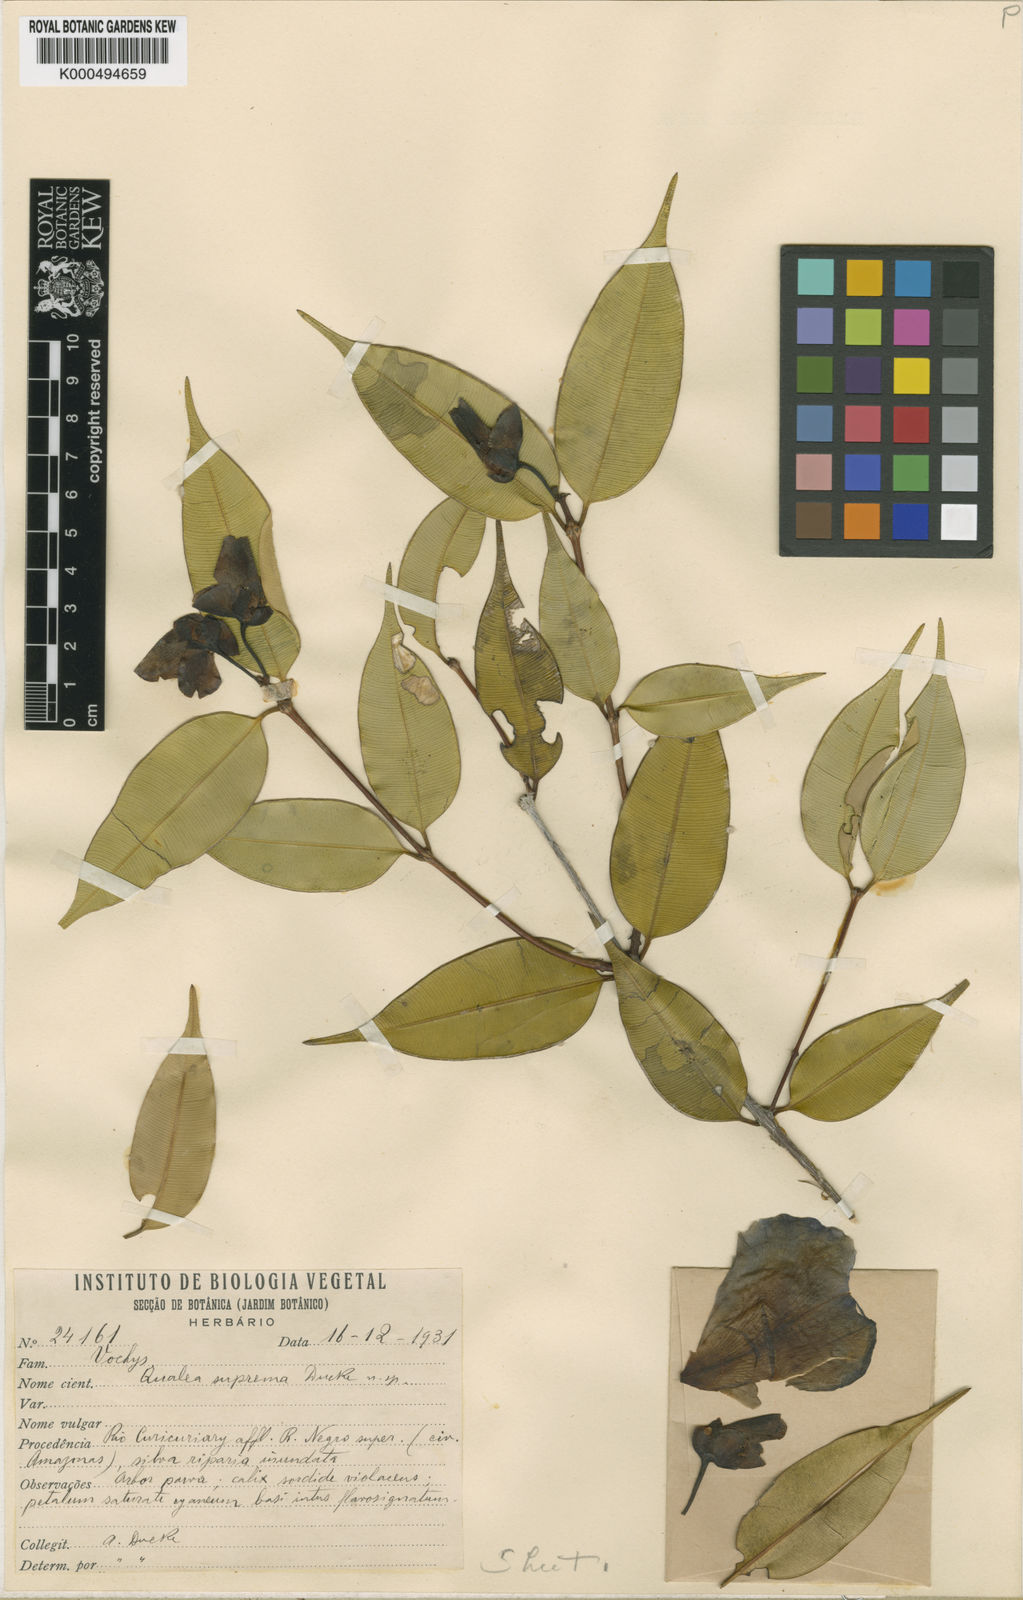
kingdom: Plantae
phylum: Tracheophyta
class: Magnoliopsida
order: Myrtales
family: Vochysiaceae
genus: Qualea
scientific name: Qualea suprema
